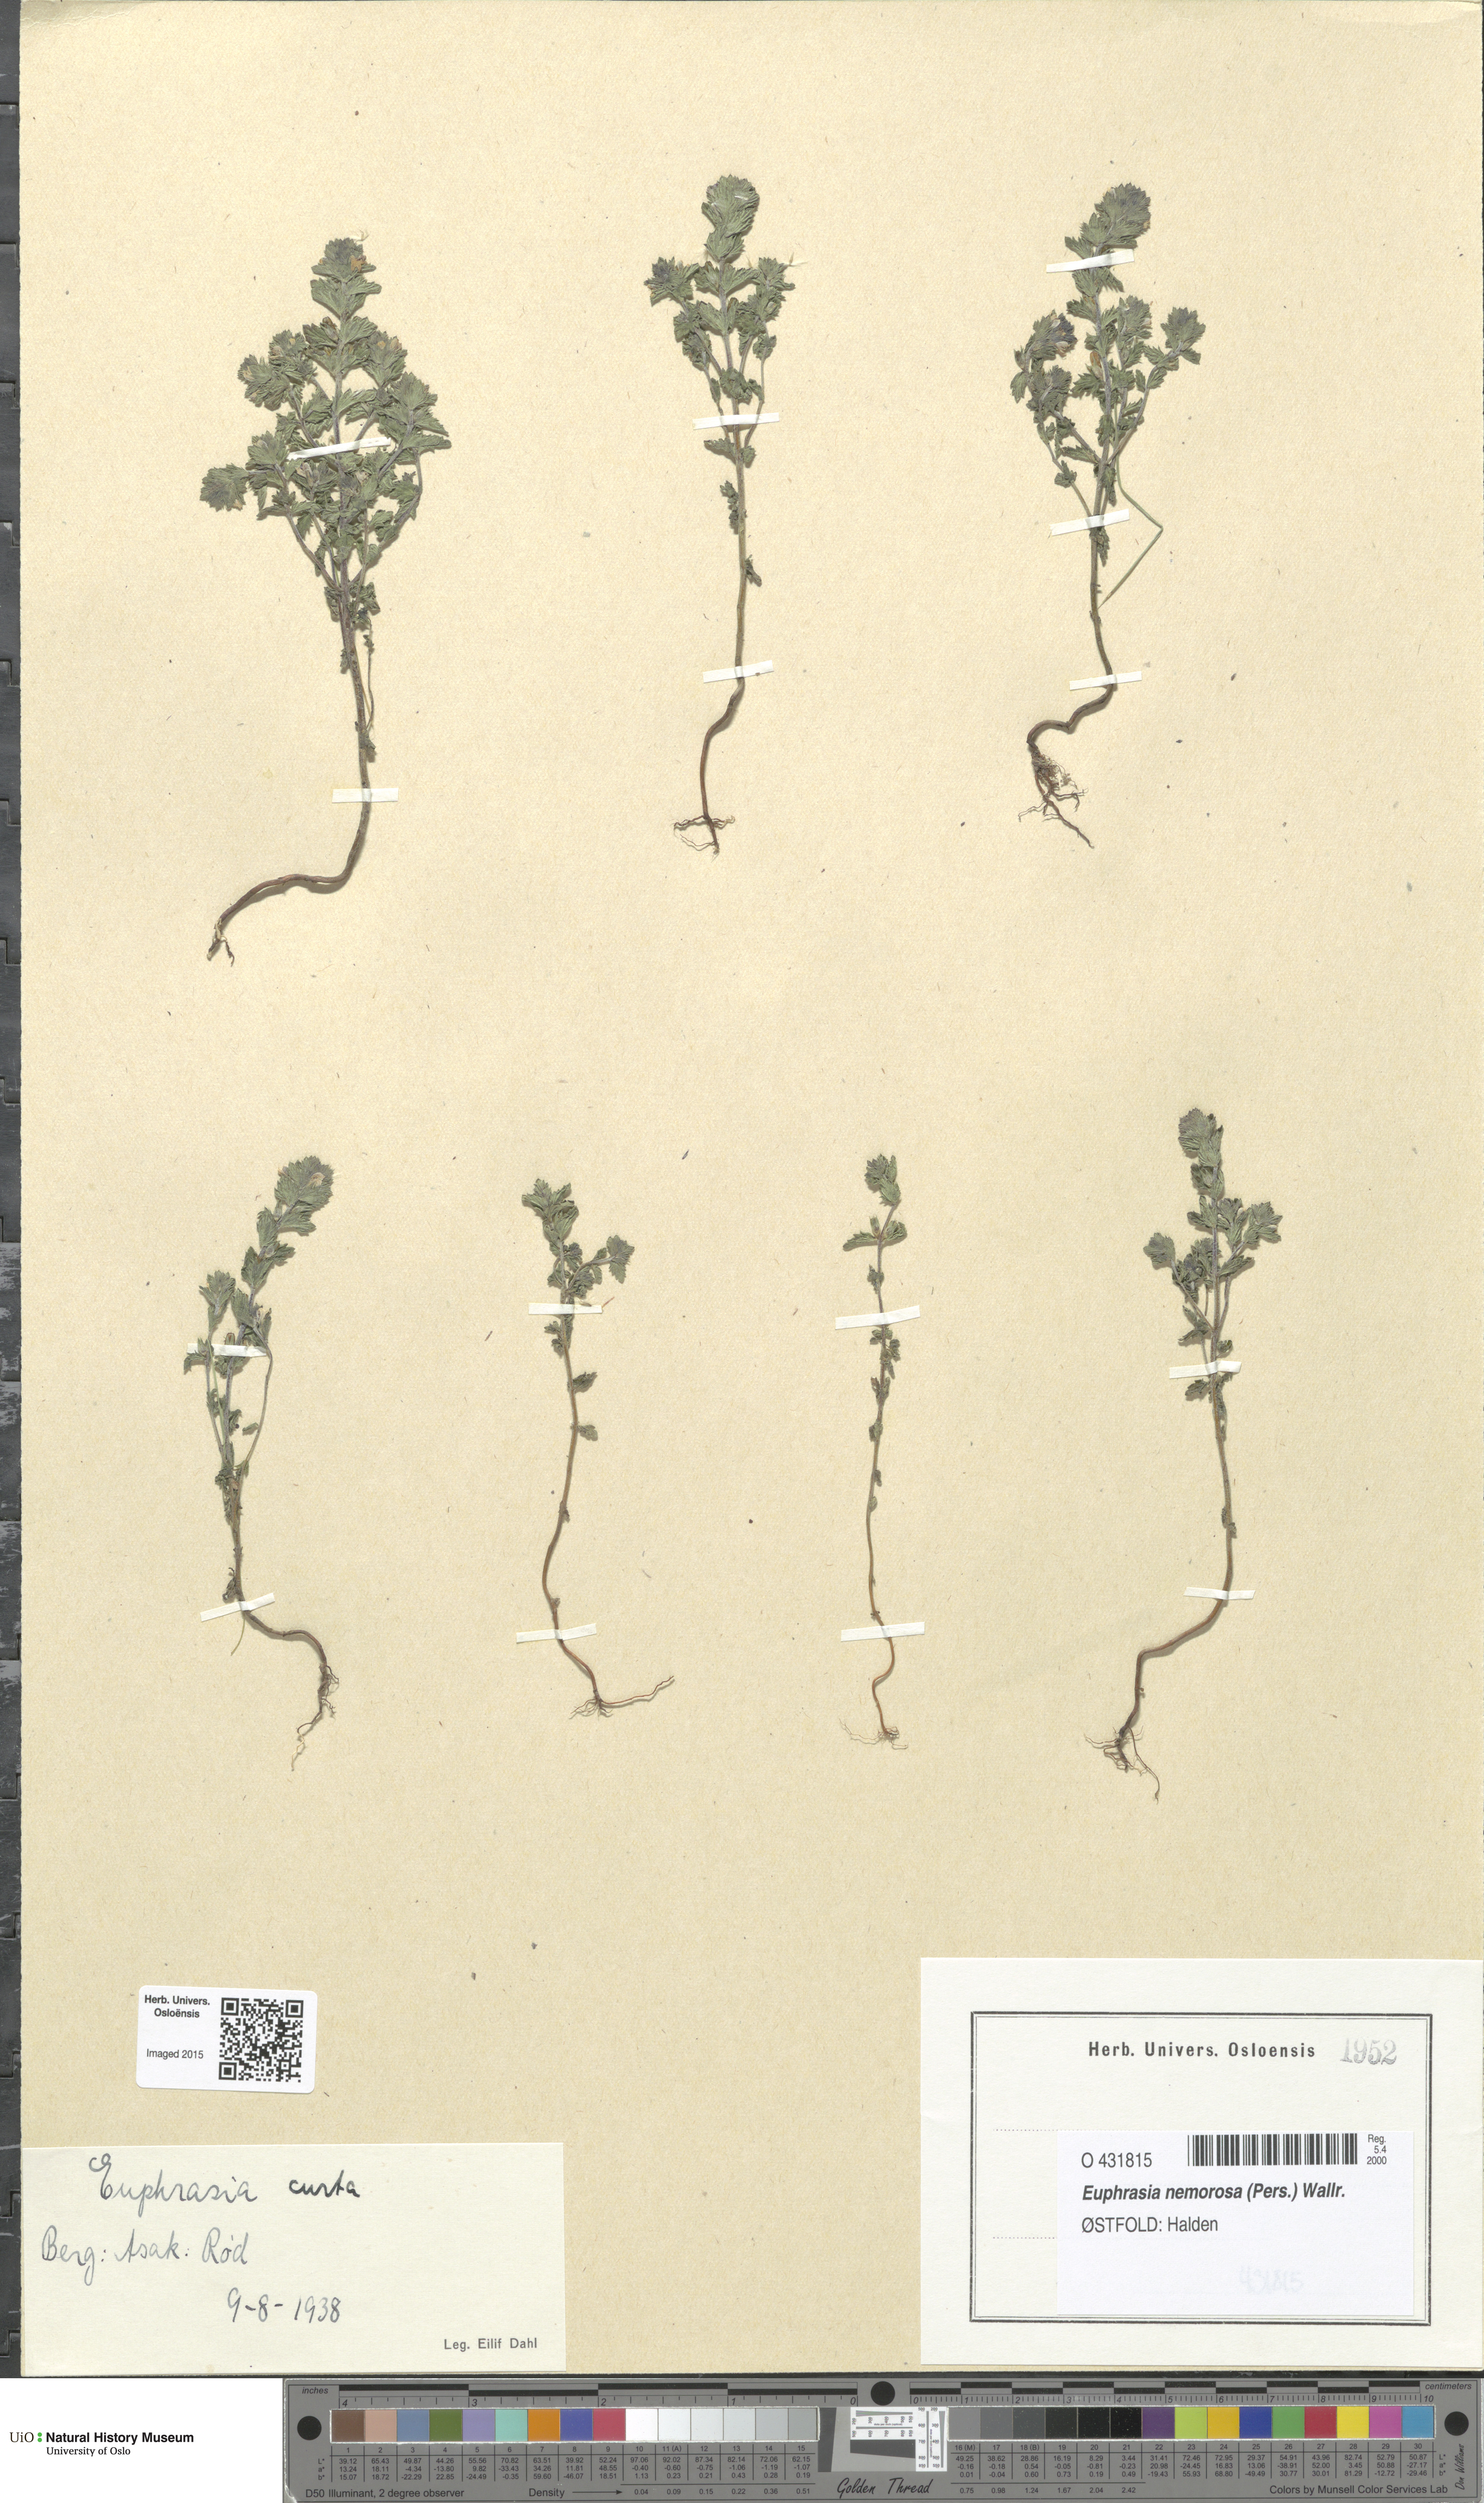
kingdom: Plantae
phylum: Tracheophyta
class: Magnoliopsida
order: Lamiales
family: Orobanchaceae
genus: Euphrasia
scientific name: Euphrasia micrantha
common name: Northern eyebright
